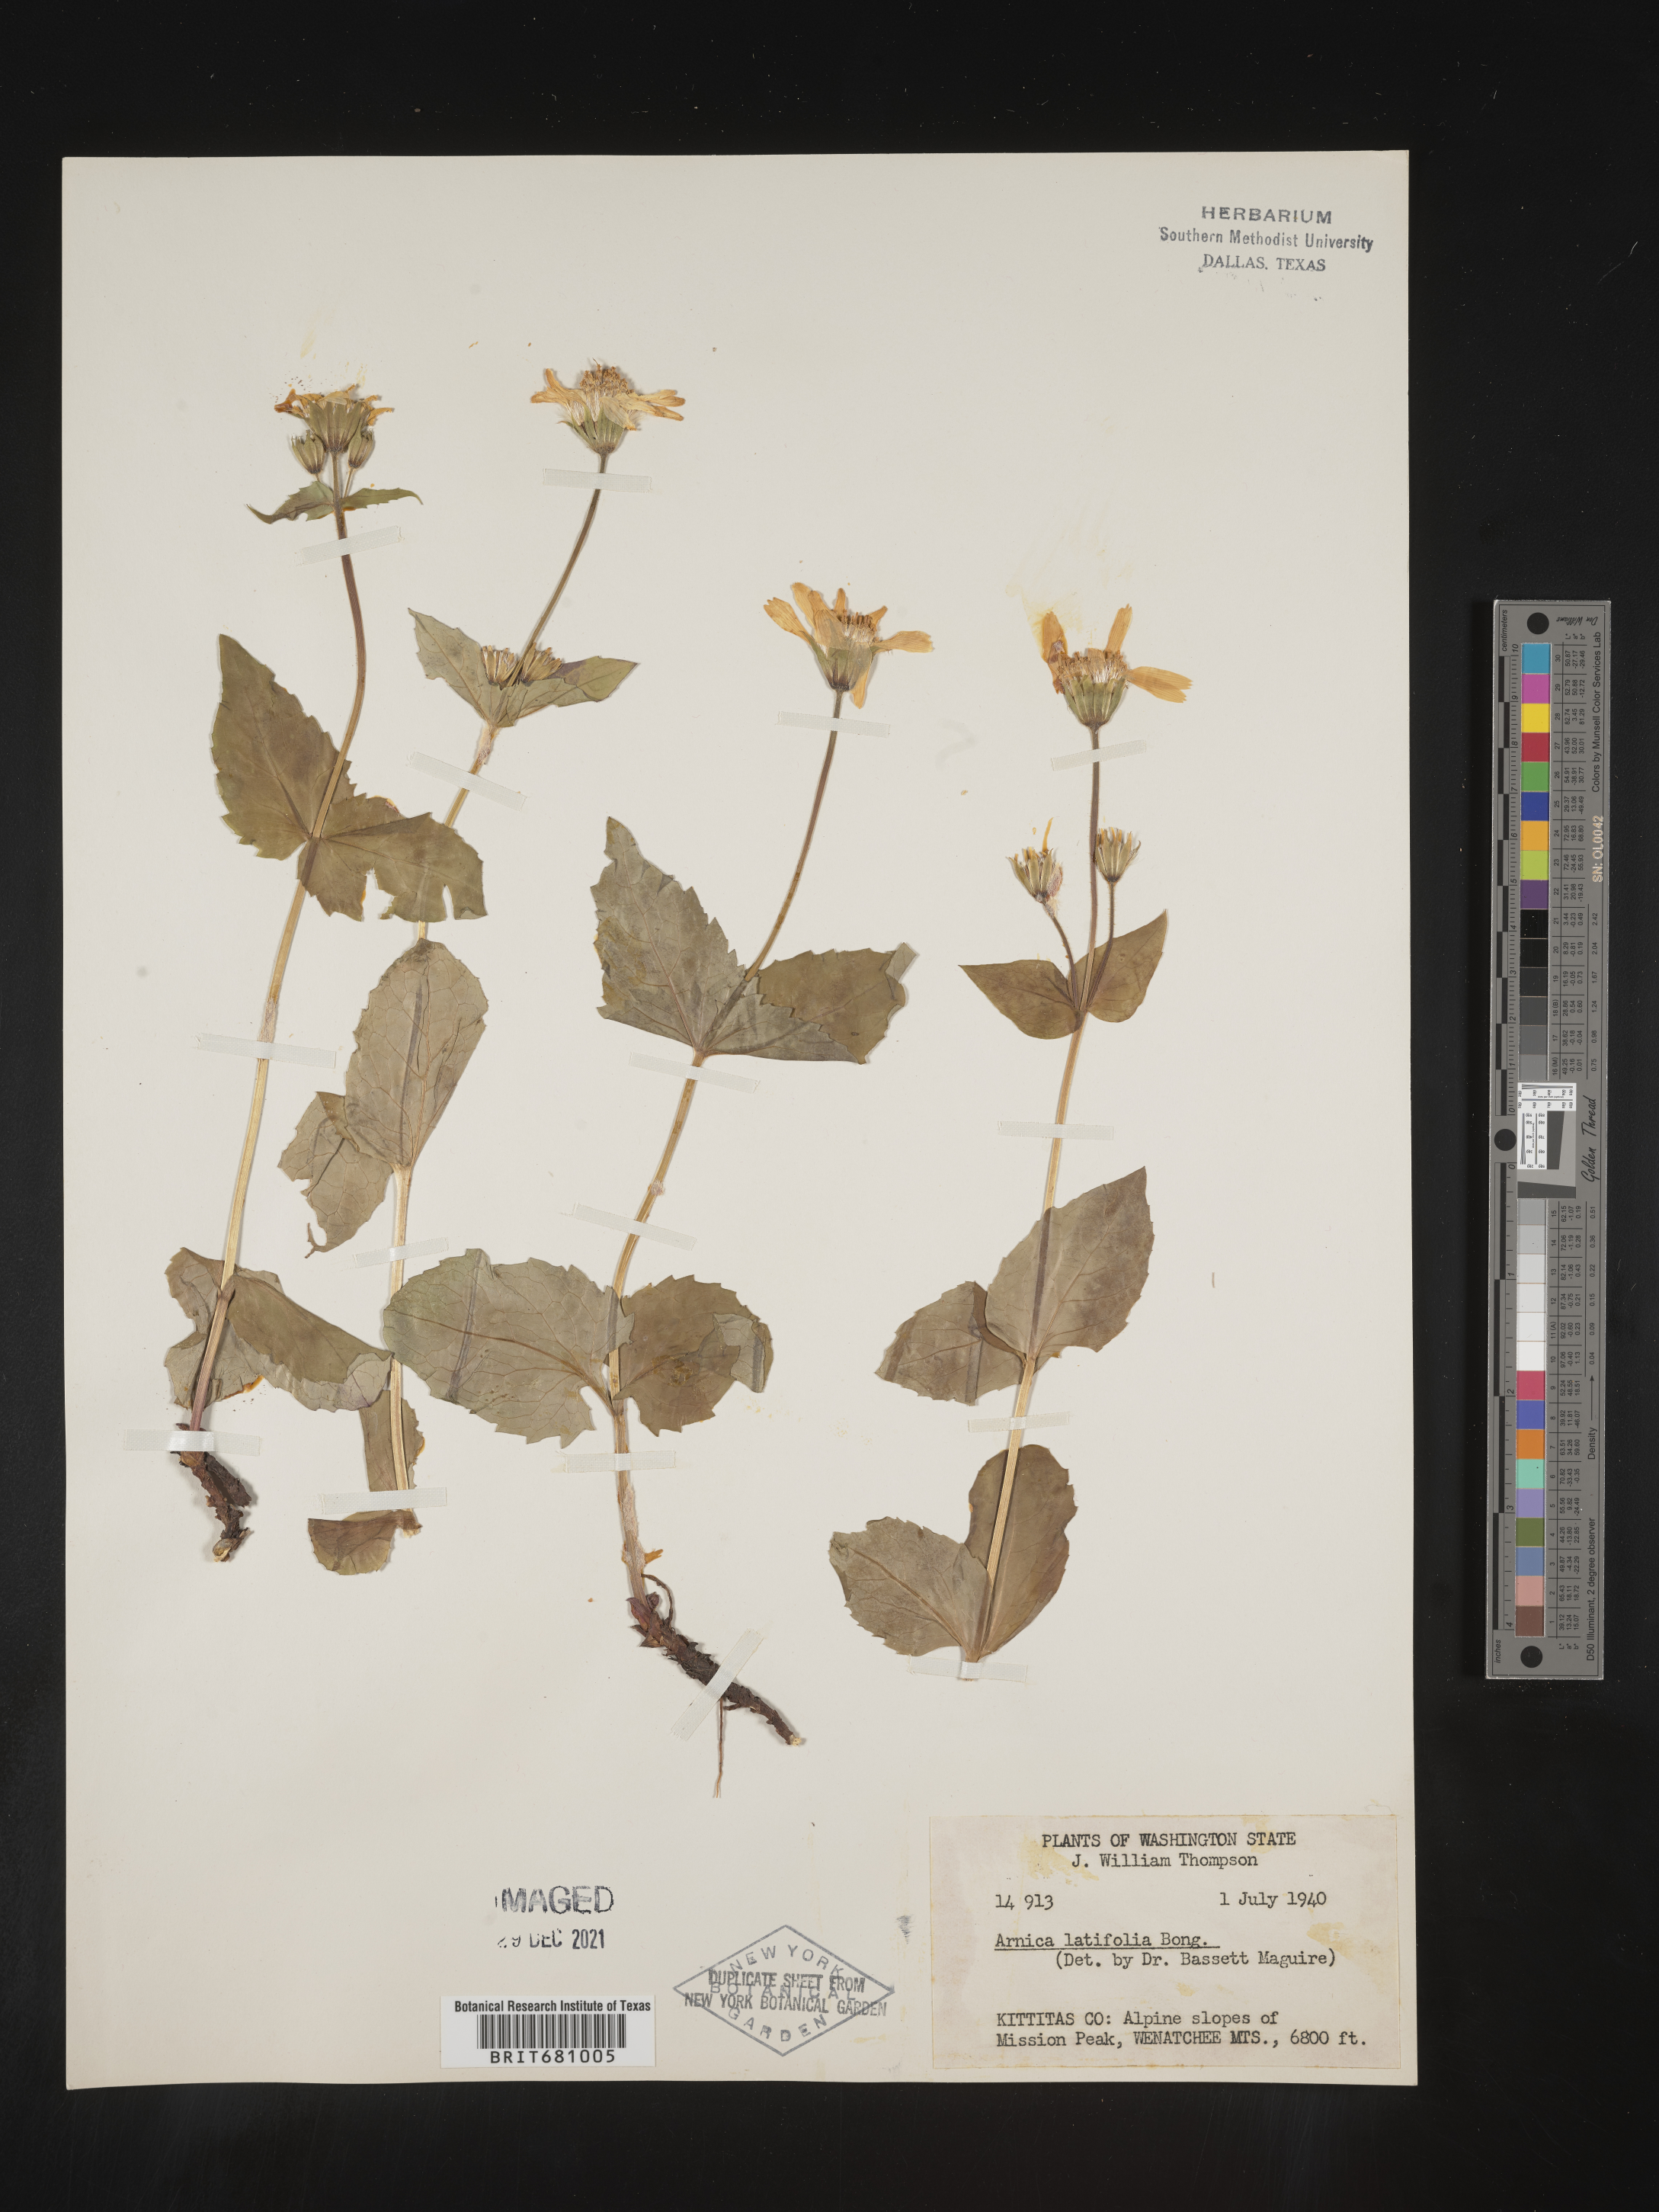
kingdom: Plantae
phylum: Tracheophyta
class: Magnoliopsida
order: Asterales
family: Asteraceae
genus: Arnica
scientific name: Arnica latifolia
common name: Arnica
